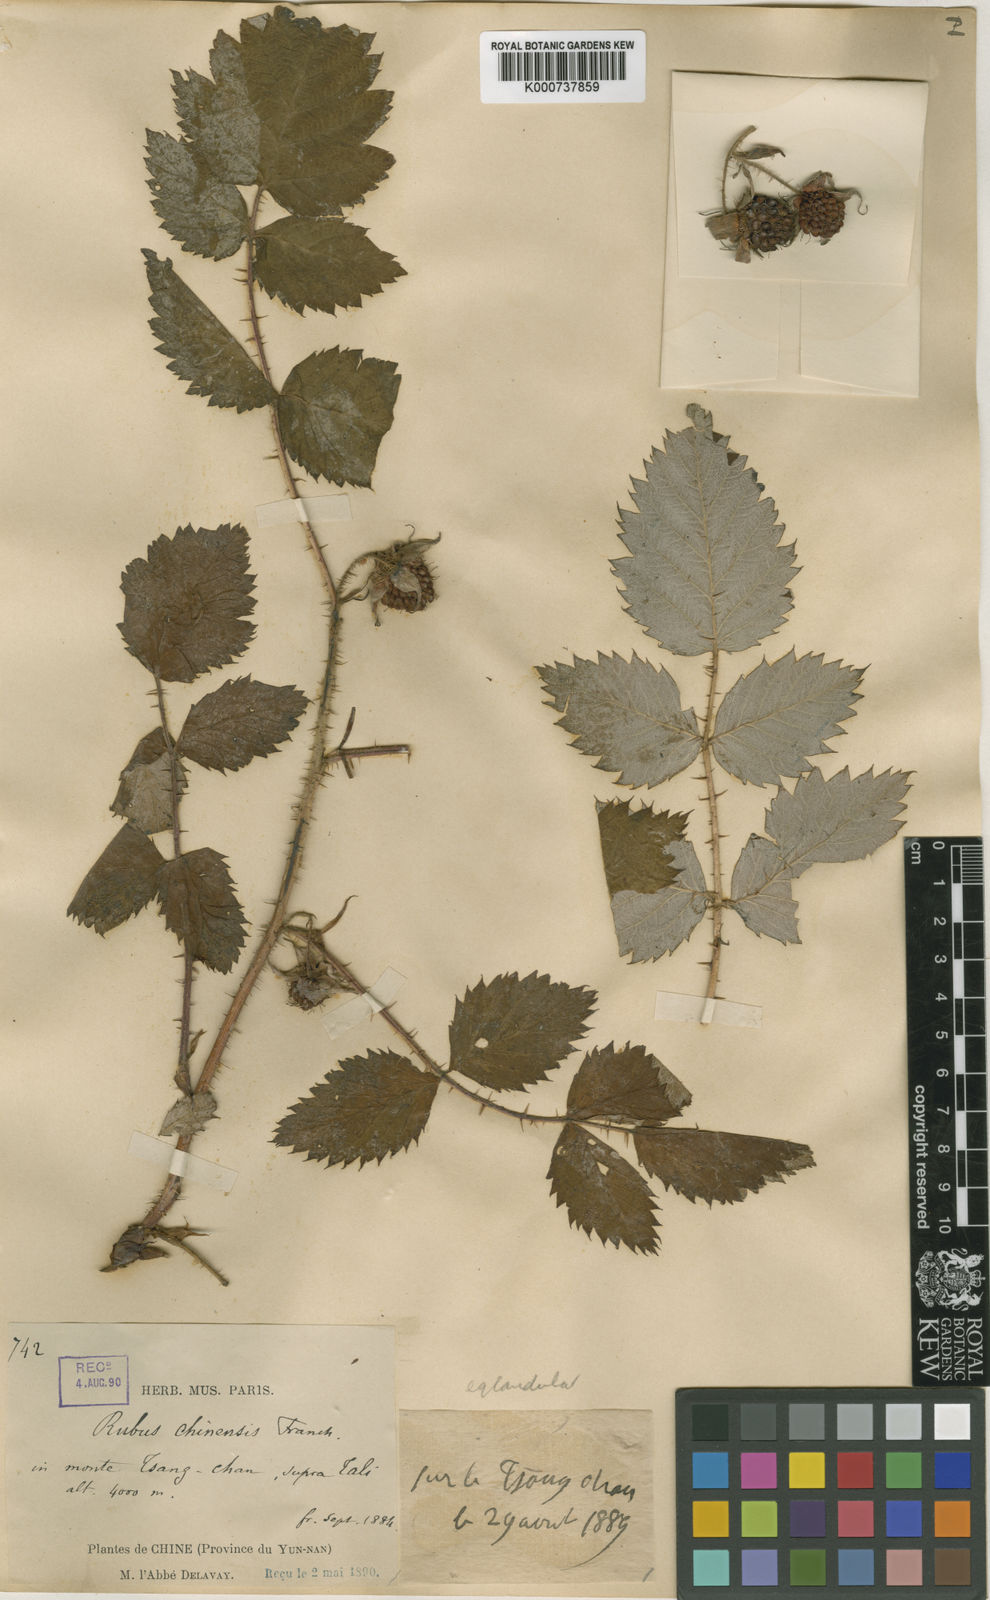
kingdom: Plantae
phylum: Tracheophyta
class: Magnoliopsida
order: Rosales
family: Rosaceae
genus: Rubus
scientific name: Rubus idaeopsis
